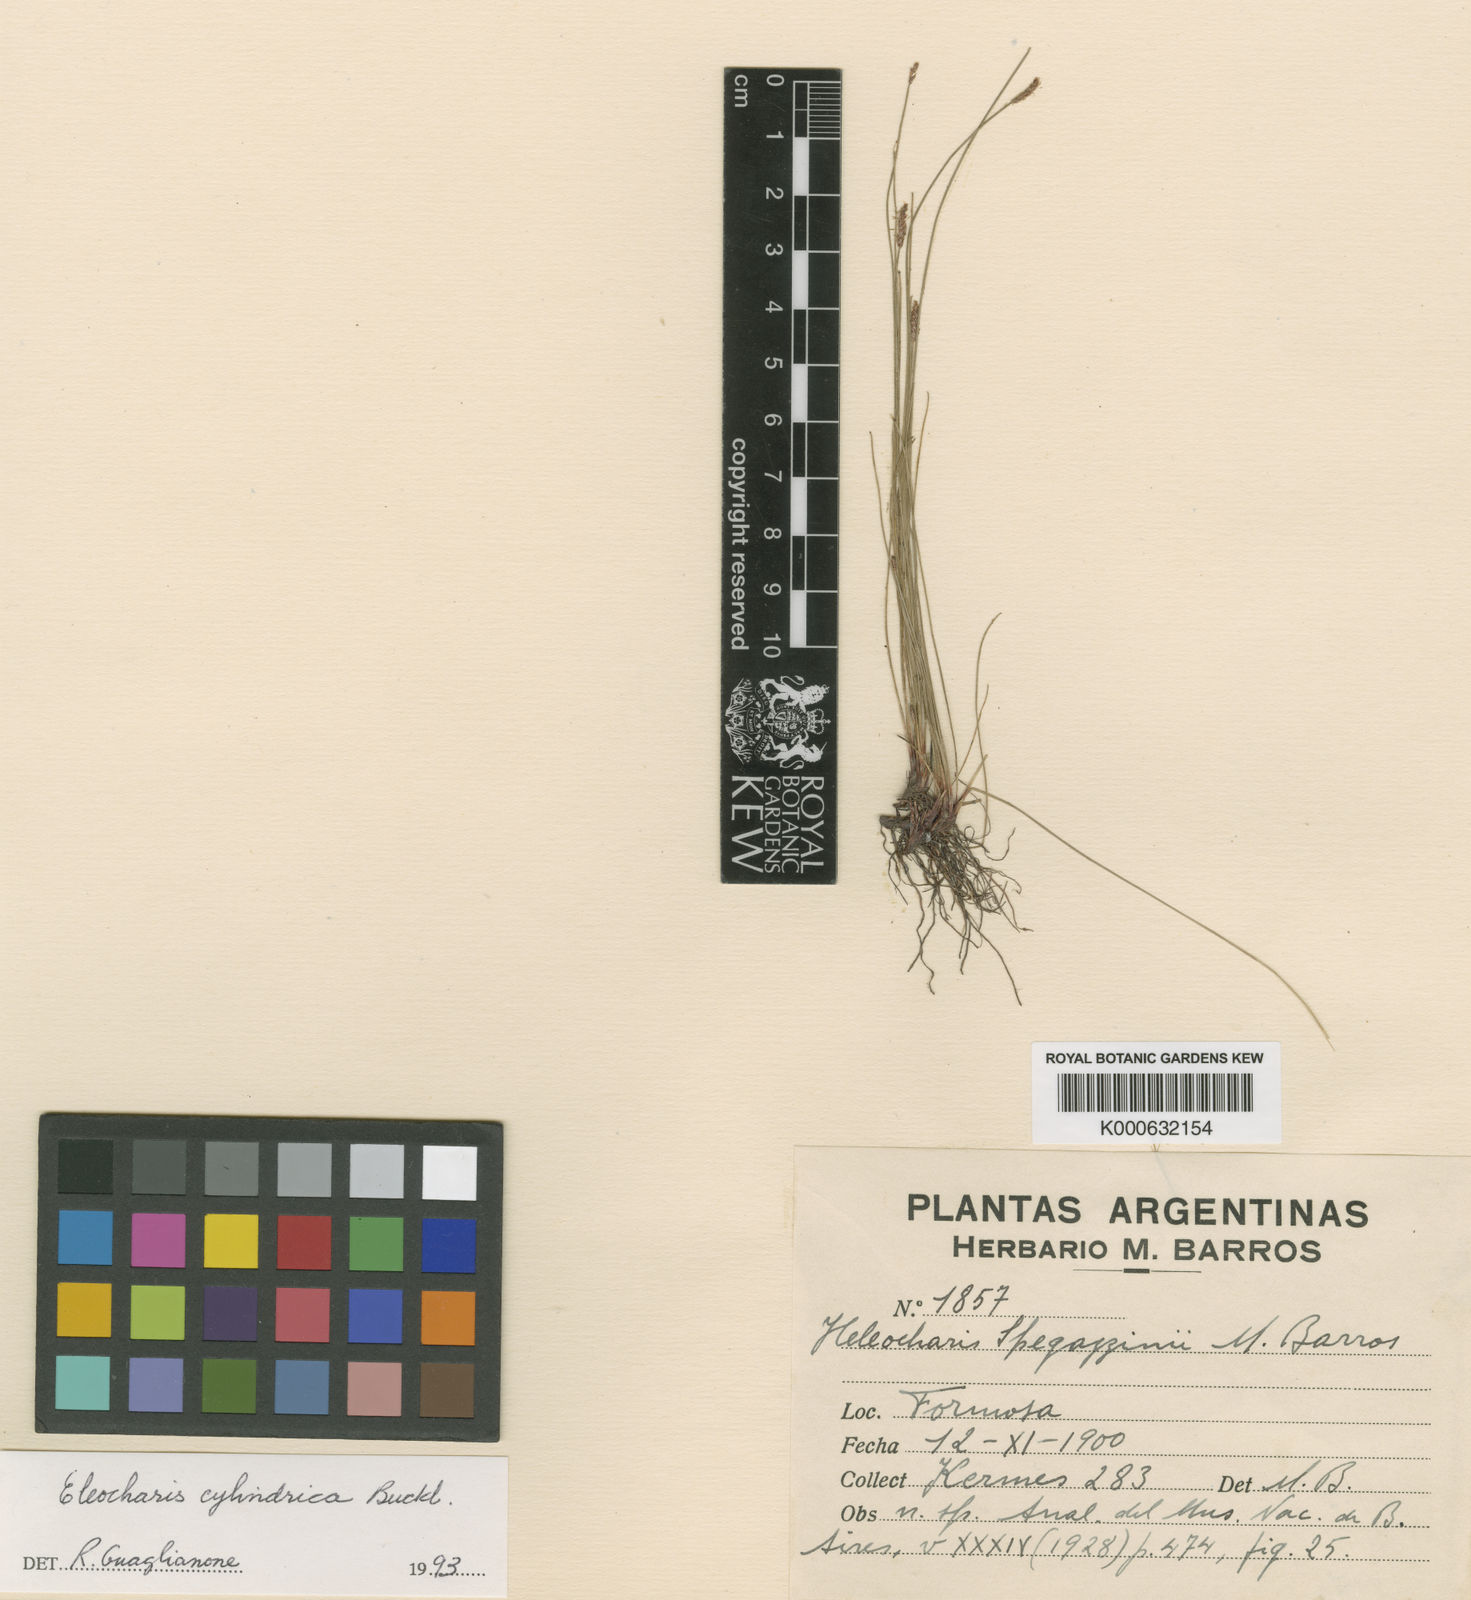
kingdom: Plantae
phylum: Tracheophyta
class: Liliopsida
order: Poales
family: Cyperaceae
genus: Eleocharis
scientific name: Eleocharis cylindrica
